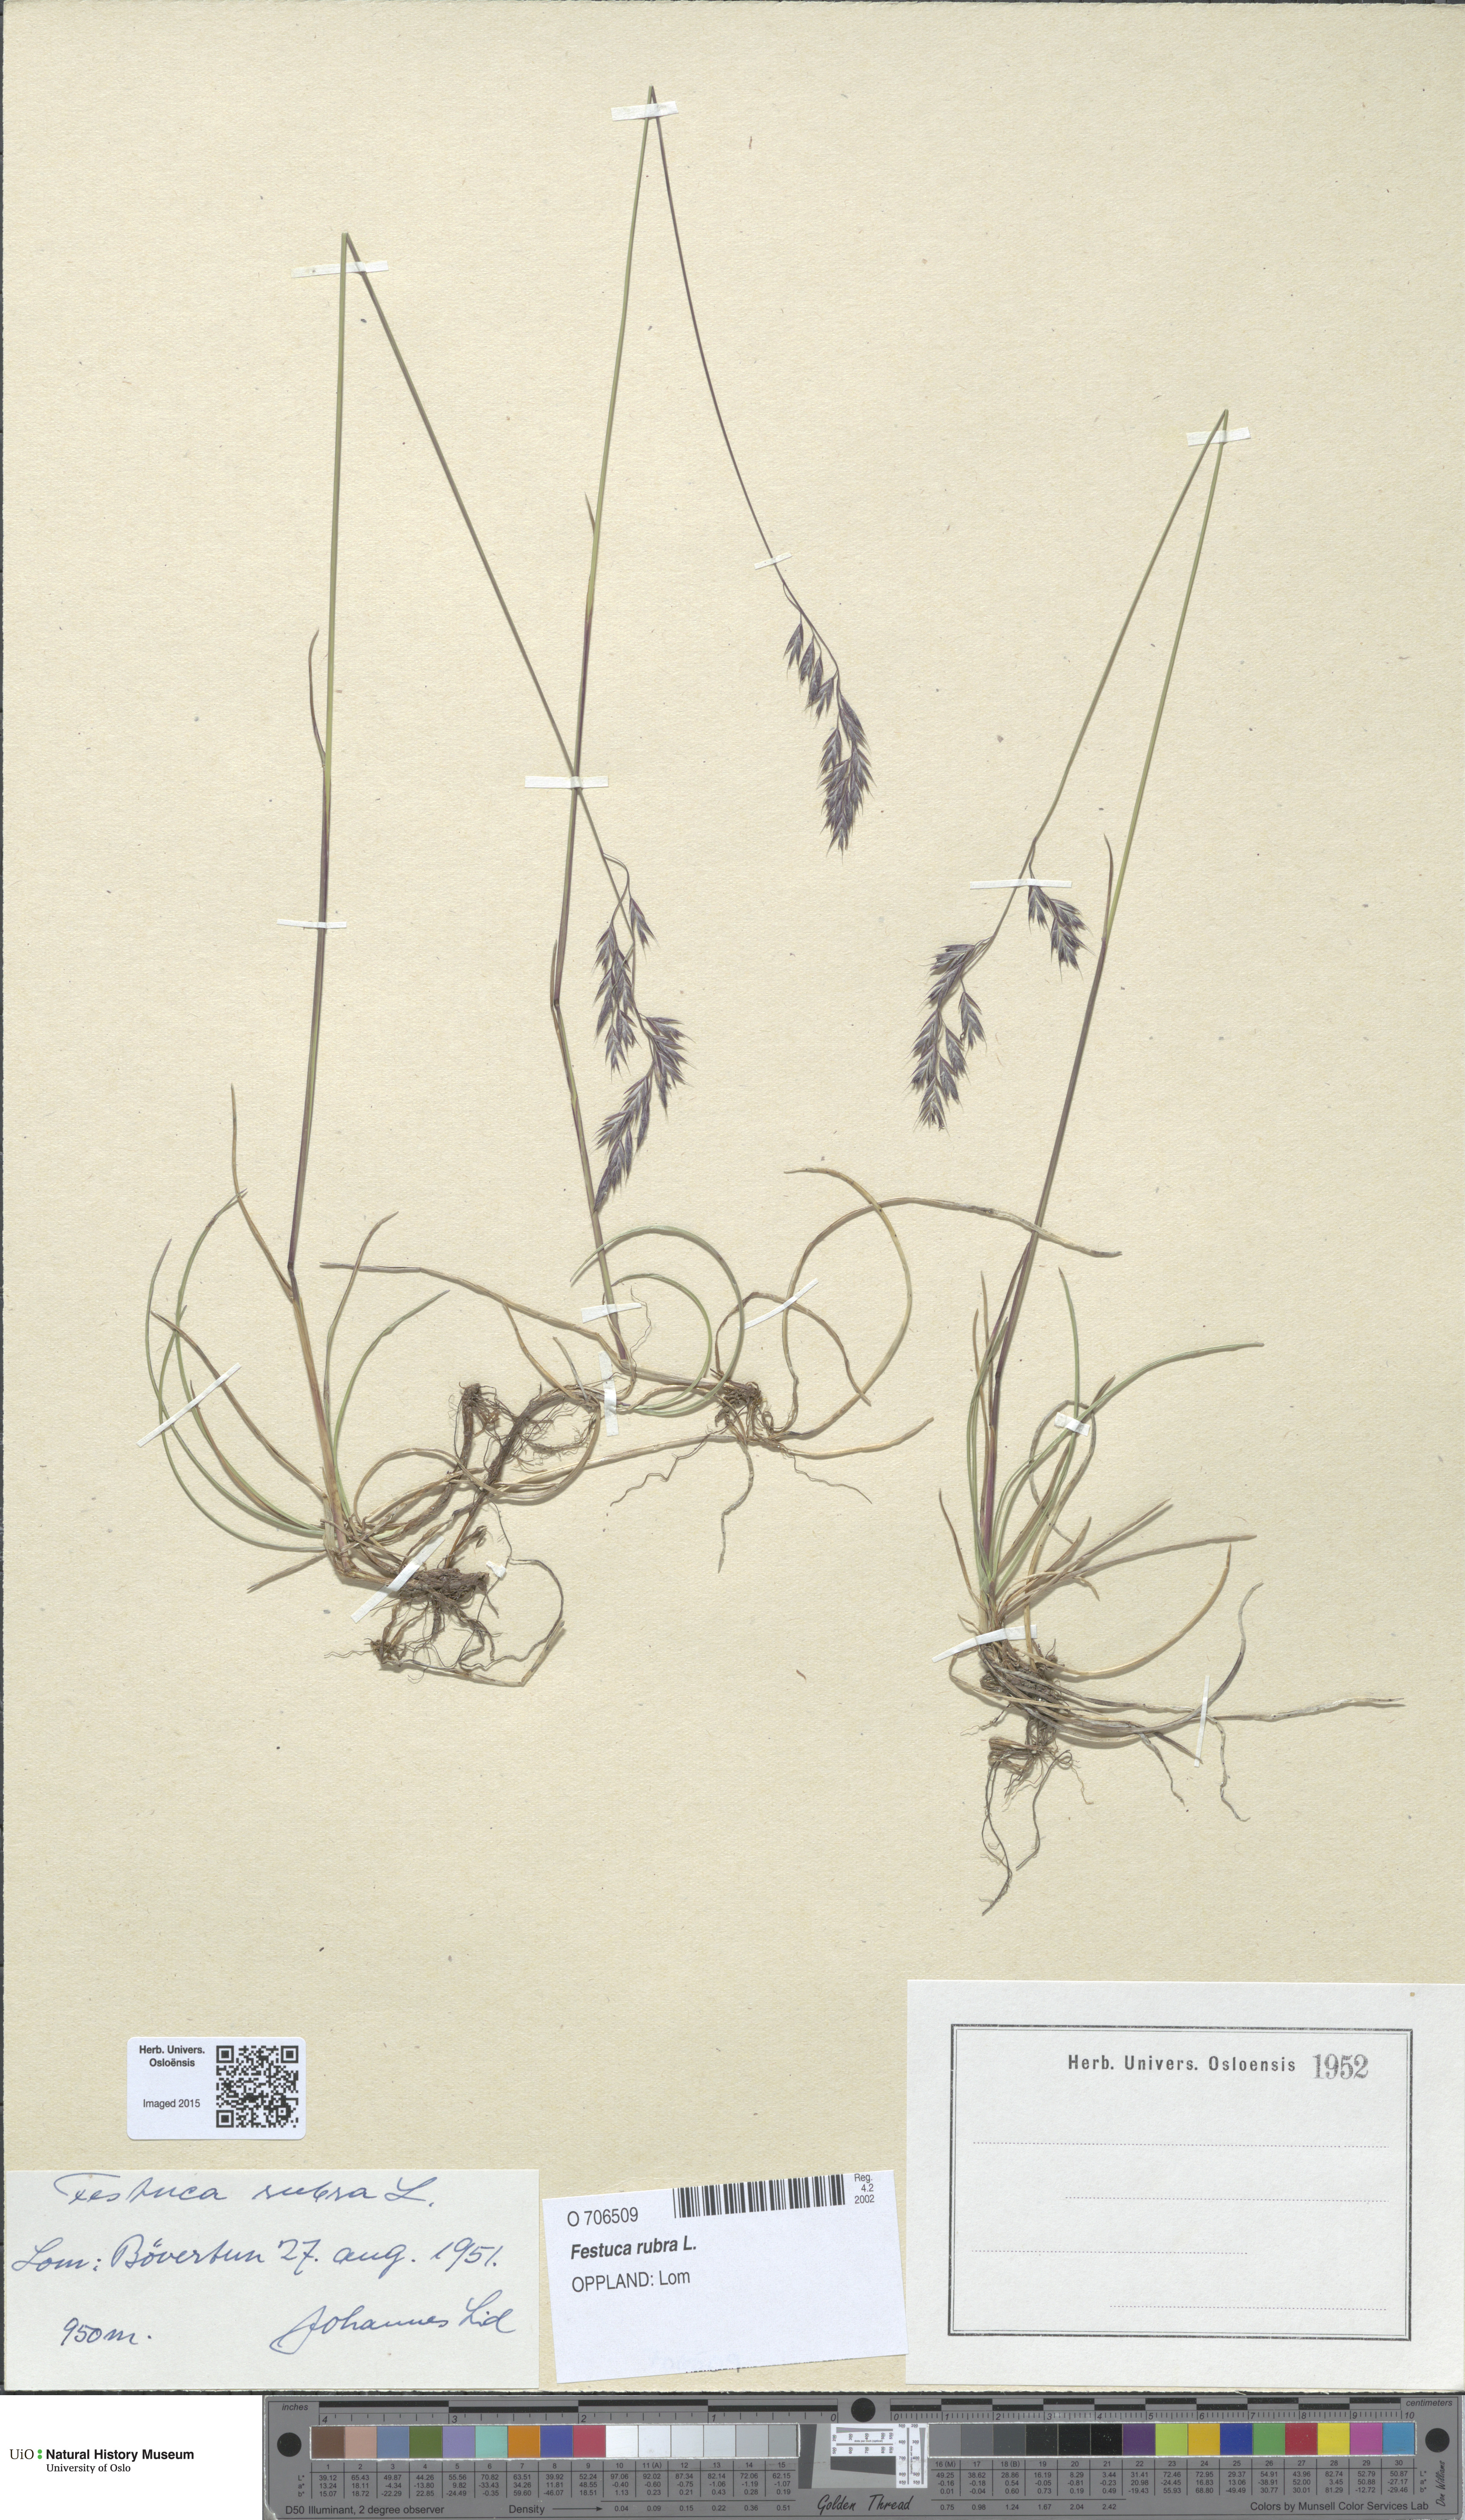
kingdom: Plantae
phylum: Tracheophyta
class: Liliopsida
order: Poales
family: Poaceae
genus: Festuca
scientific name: Festuca rubra
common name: Red fescue
